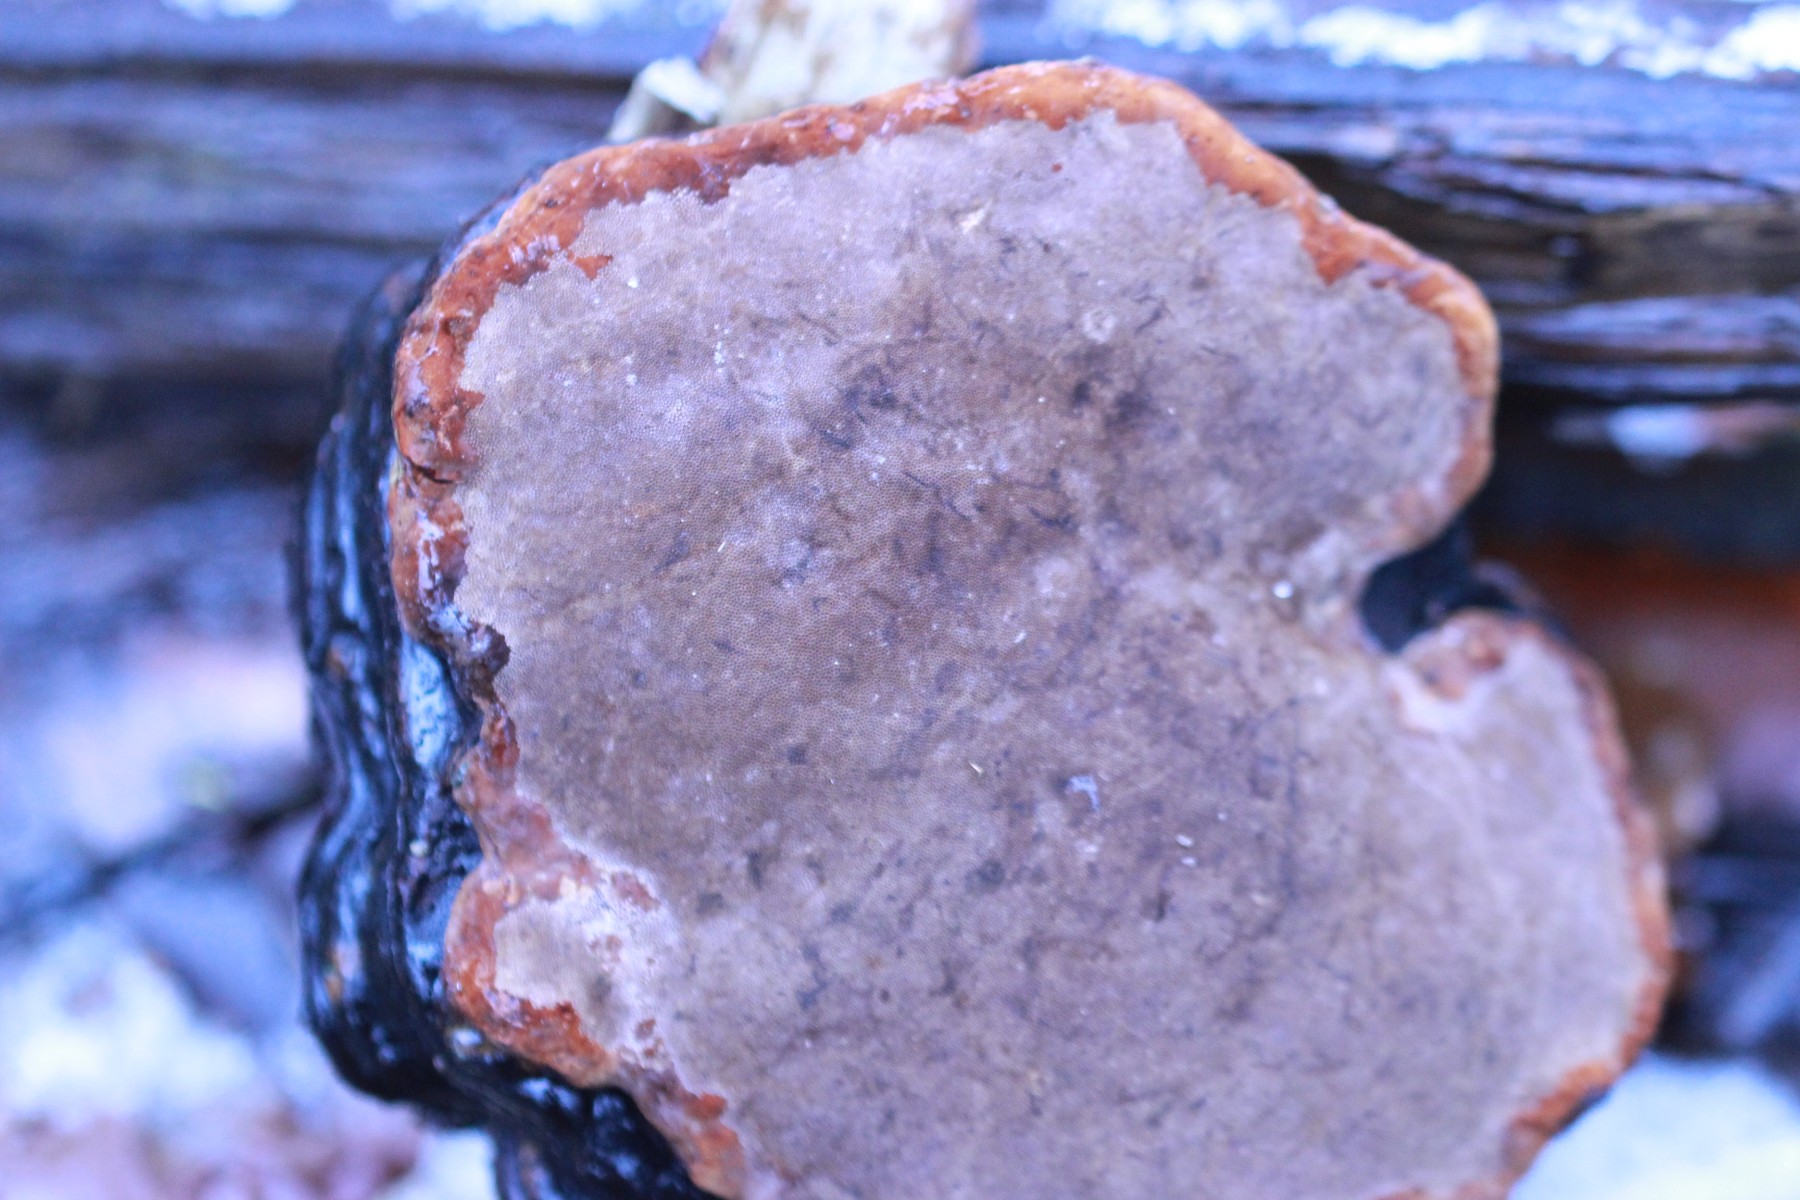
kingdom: Fungi
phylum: Basidiomycota
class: Agaricomycetes
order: Polyporales
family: Polyporaceae
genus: Fomes
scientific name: Fomes fomentarius
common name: tøndersvamp
